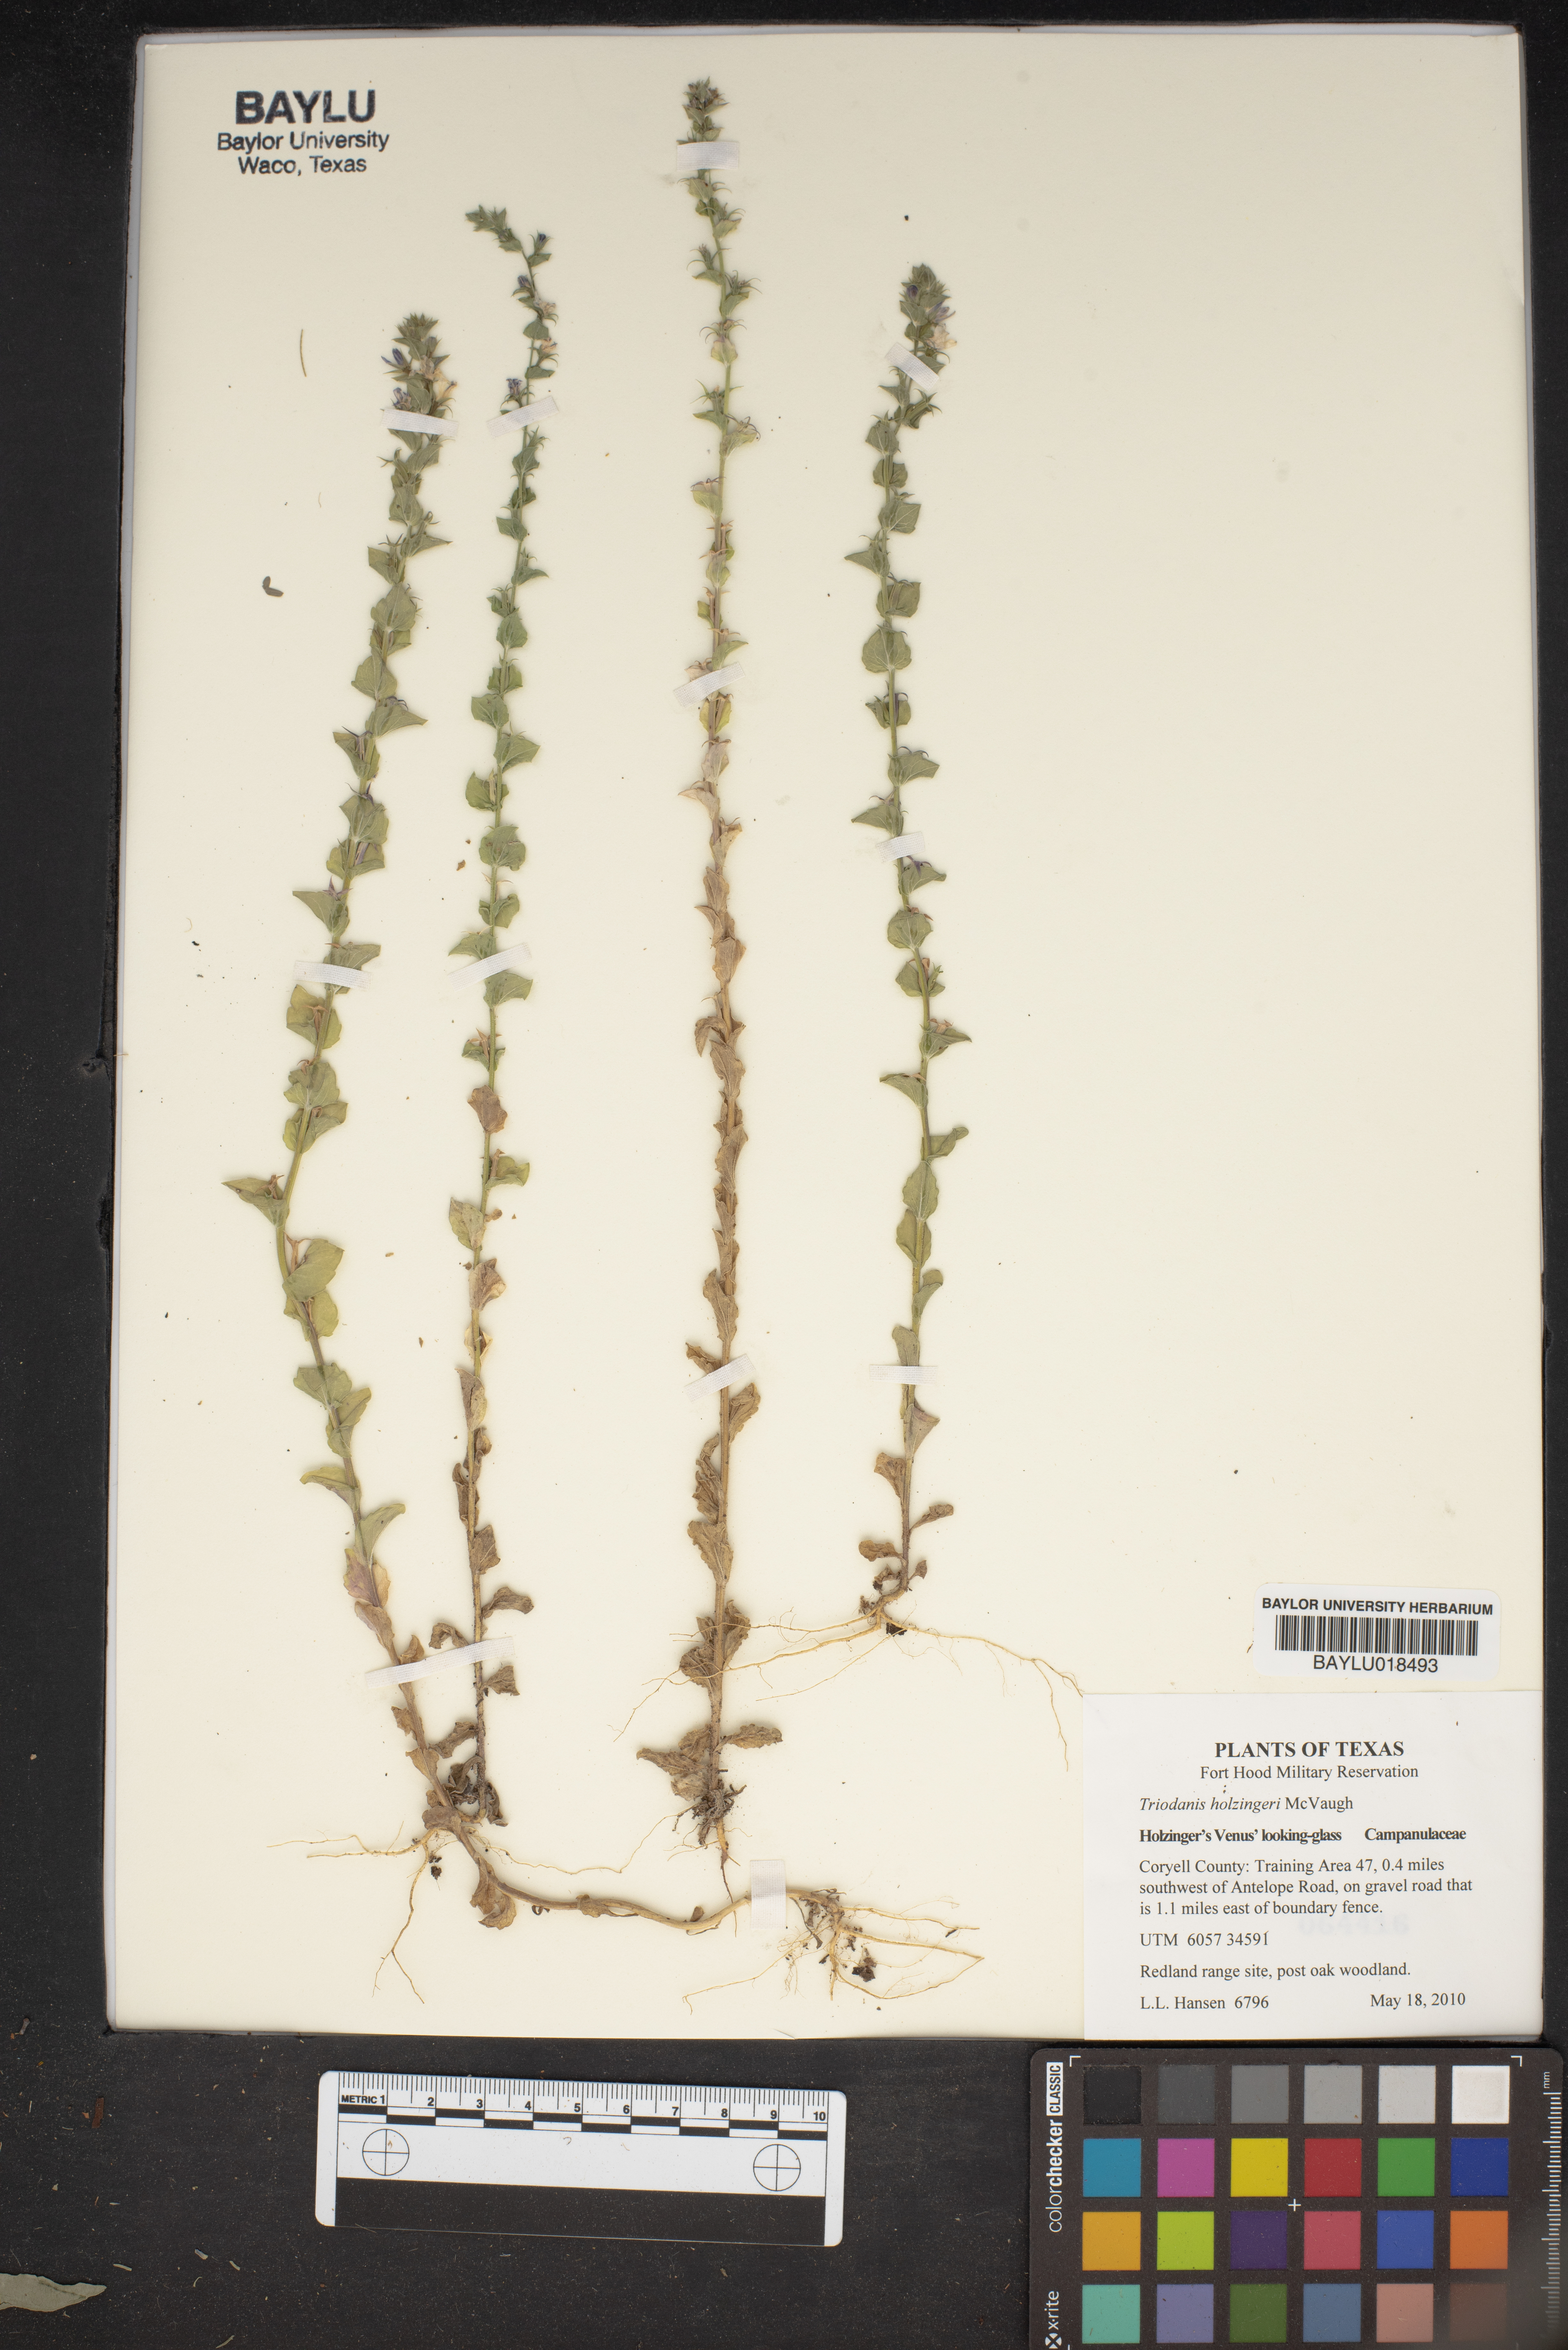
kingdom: Plantae
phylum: Tracheophyta
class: Magnoliopsida
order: Asterales
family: Campanulaceae
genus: Triodanis
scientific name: Triodanis holzingeri
